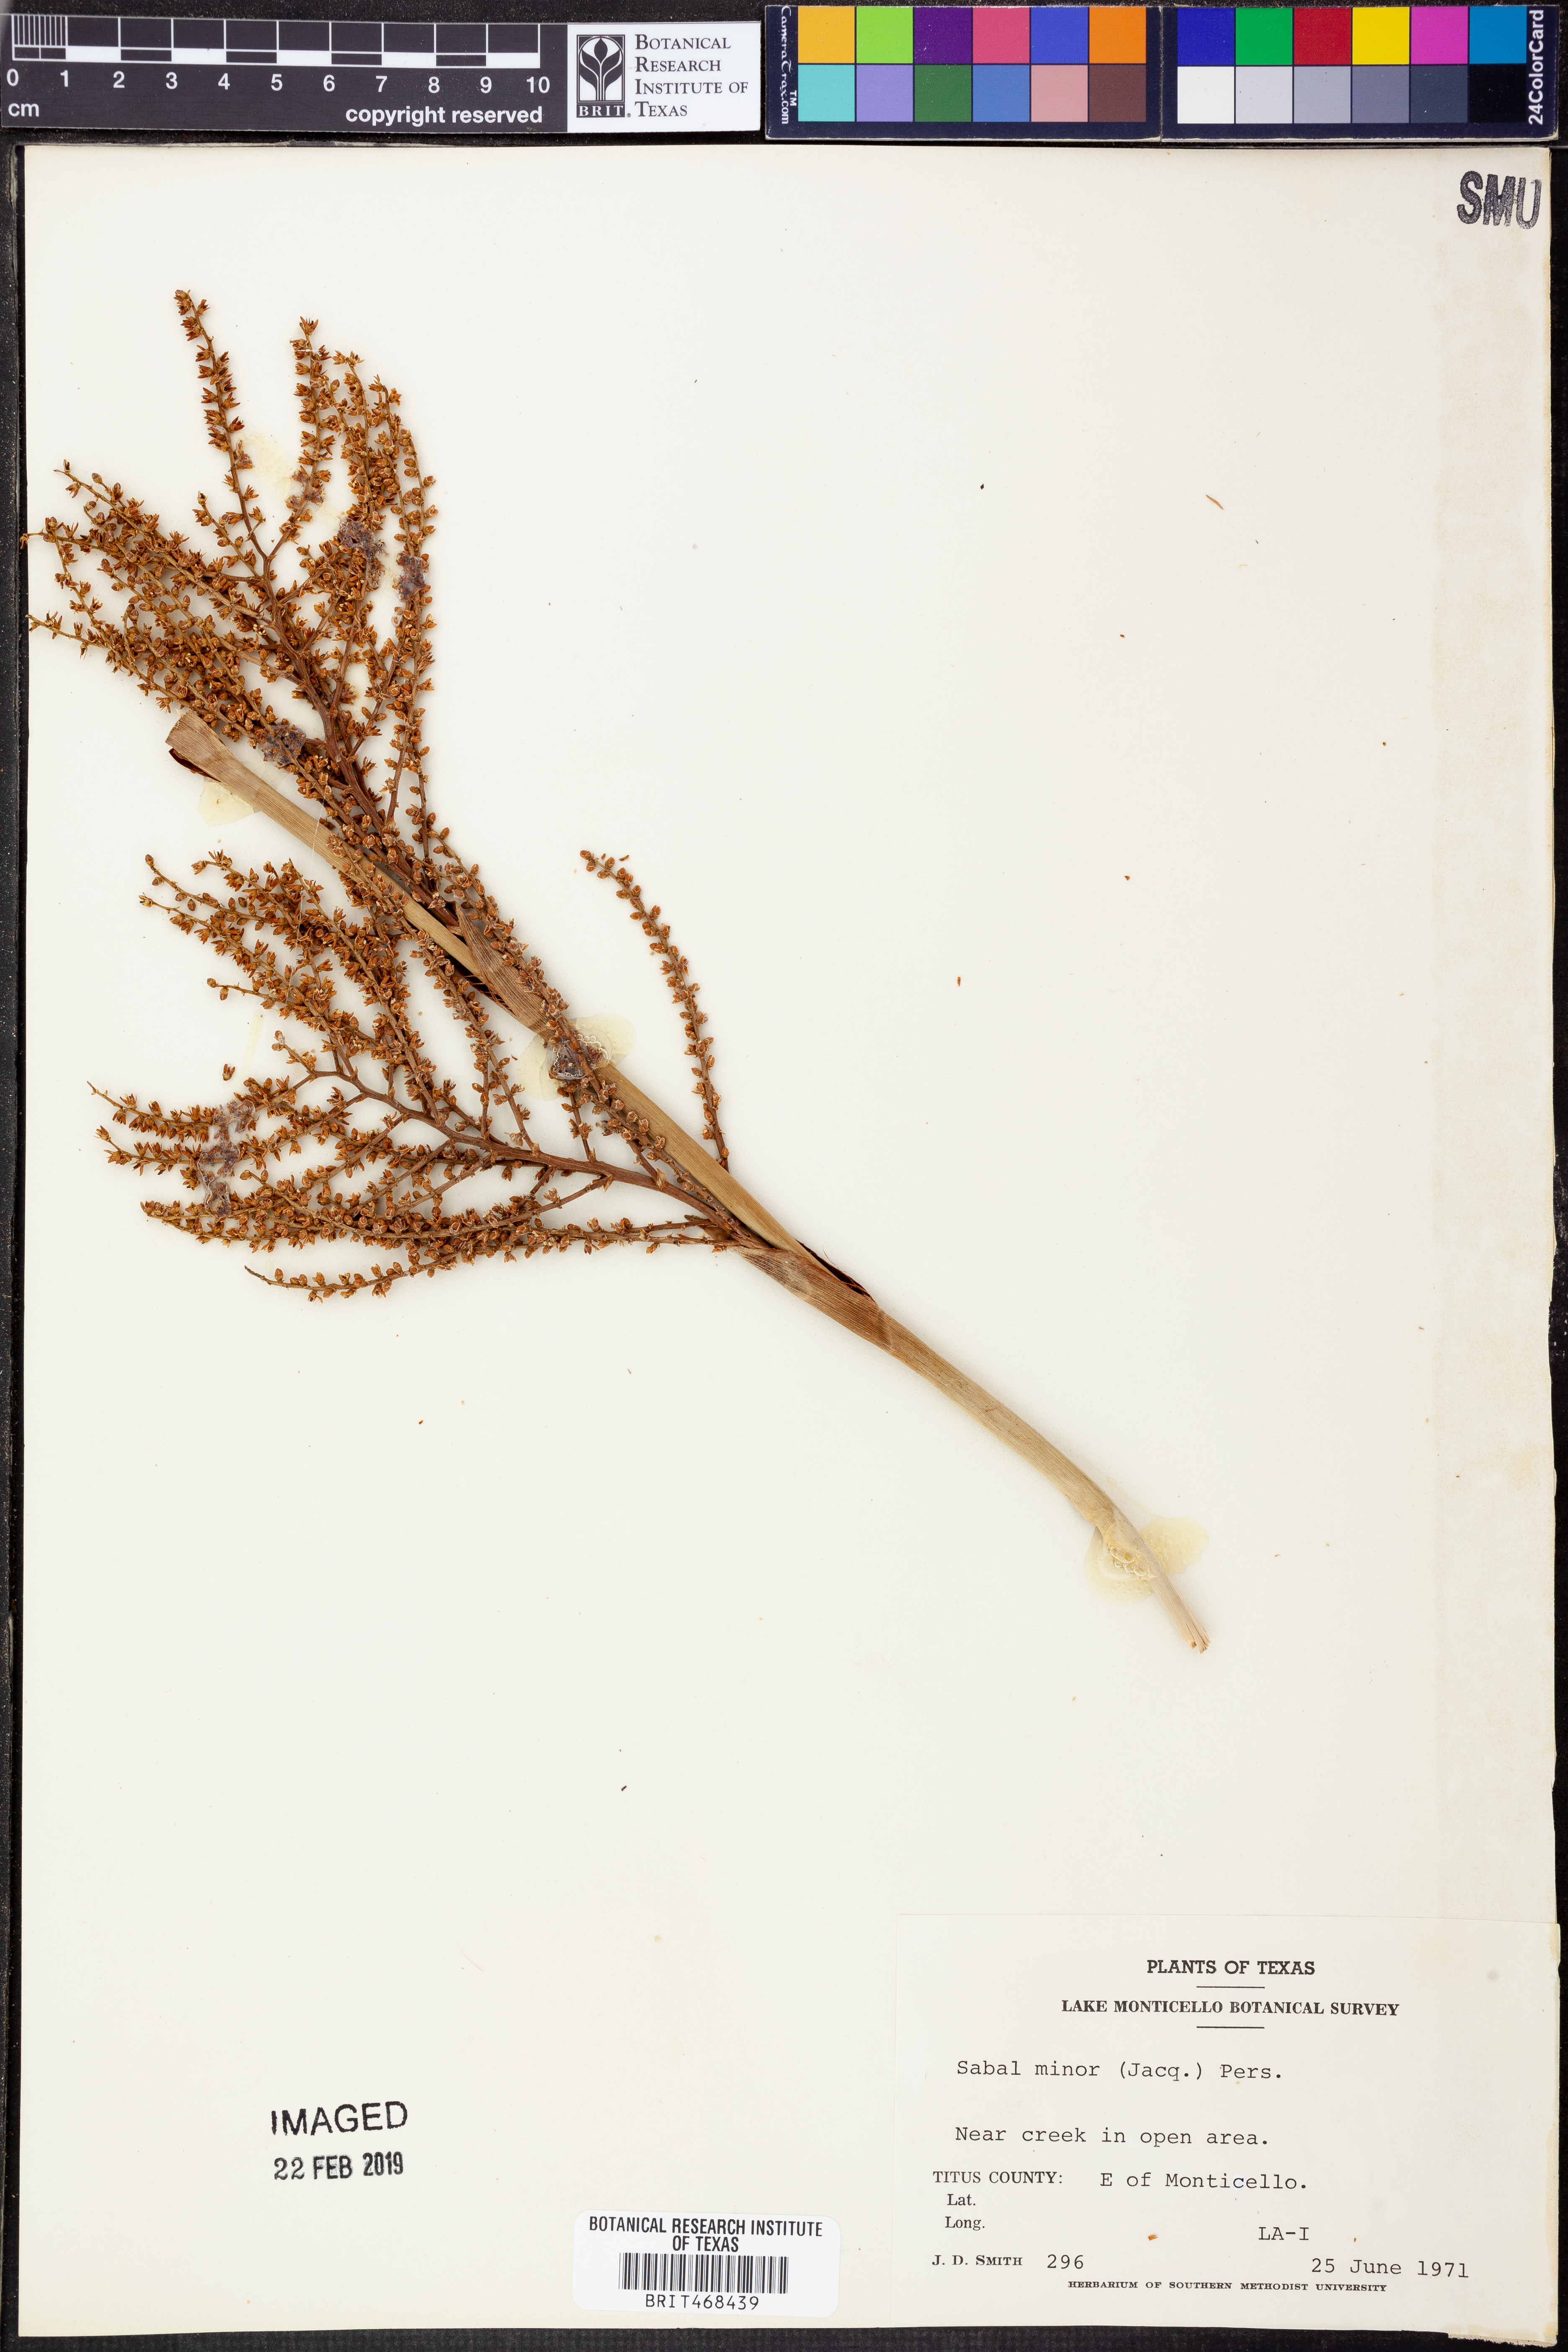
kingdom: Plantae
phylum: Tracheophyta
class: Liliopsida
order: Arecales
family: Arecaceae
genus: Sabal
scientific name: Sabal minor
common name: Dwarf palmetto
